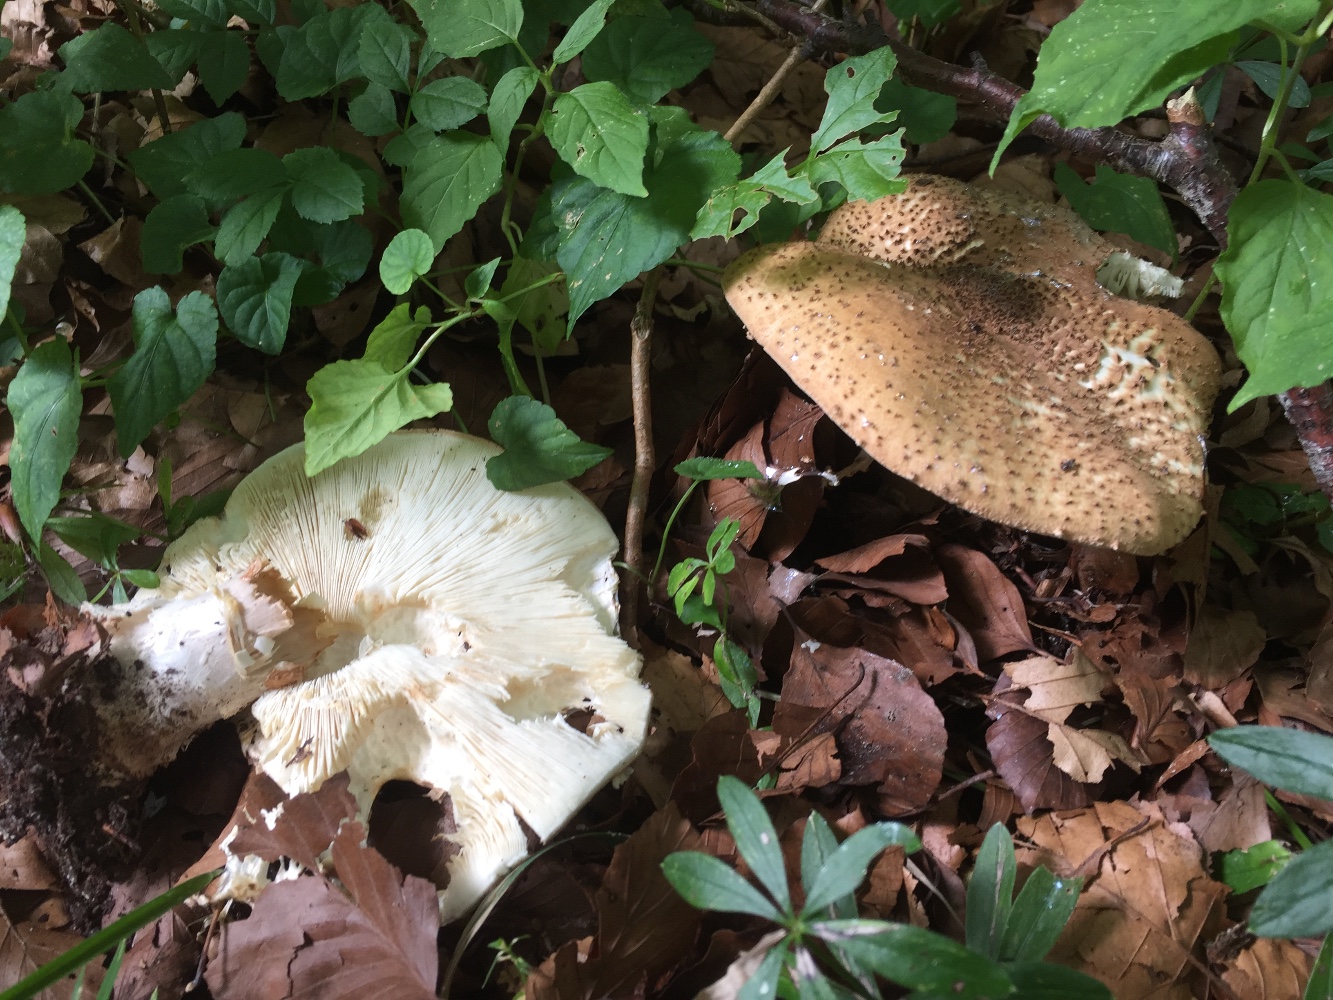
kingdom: Fungi
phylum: Basidiomycota
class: Agaricomycetes
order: Agaricales
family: Agaricaceae
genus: Echinoderma
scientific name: Echinoderma asperum
